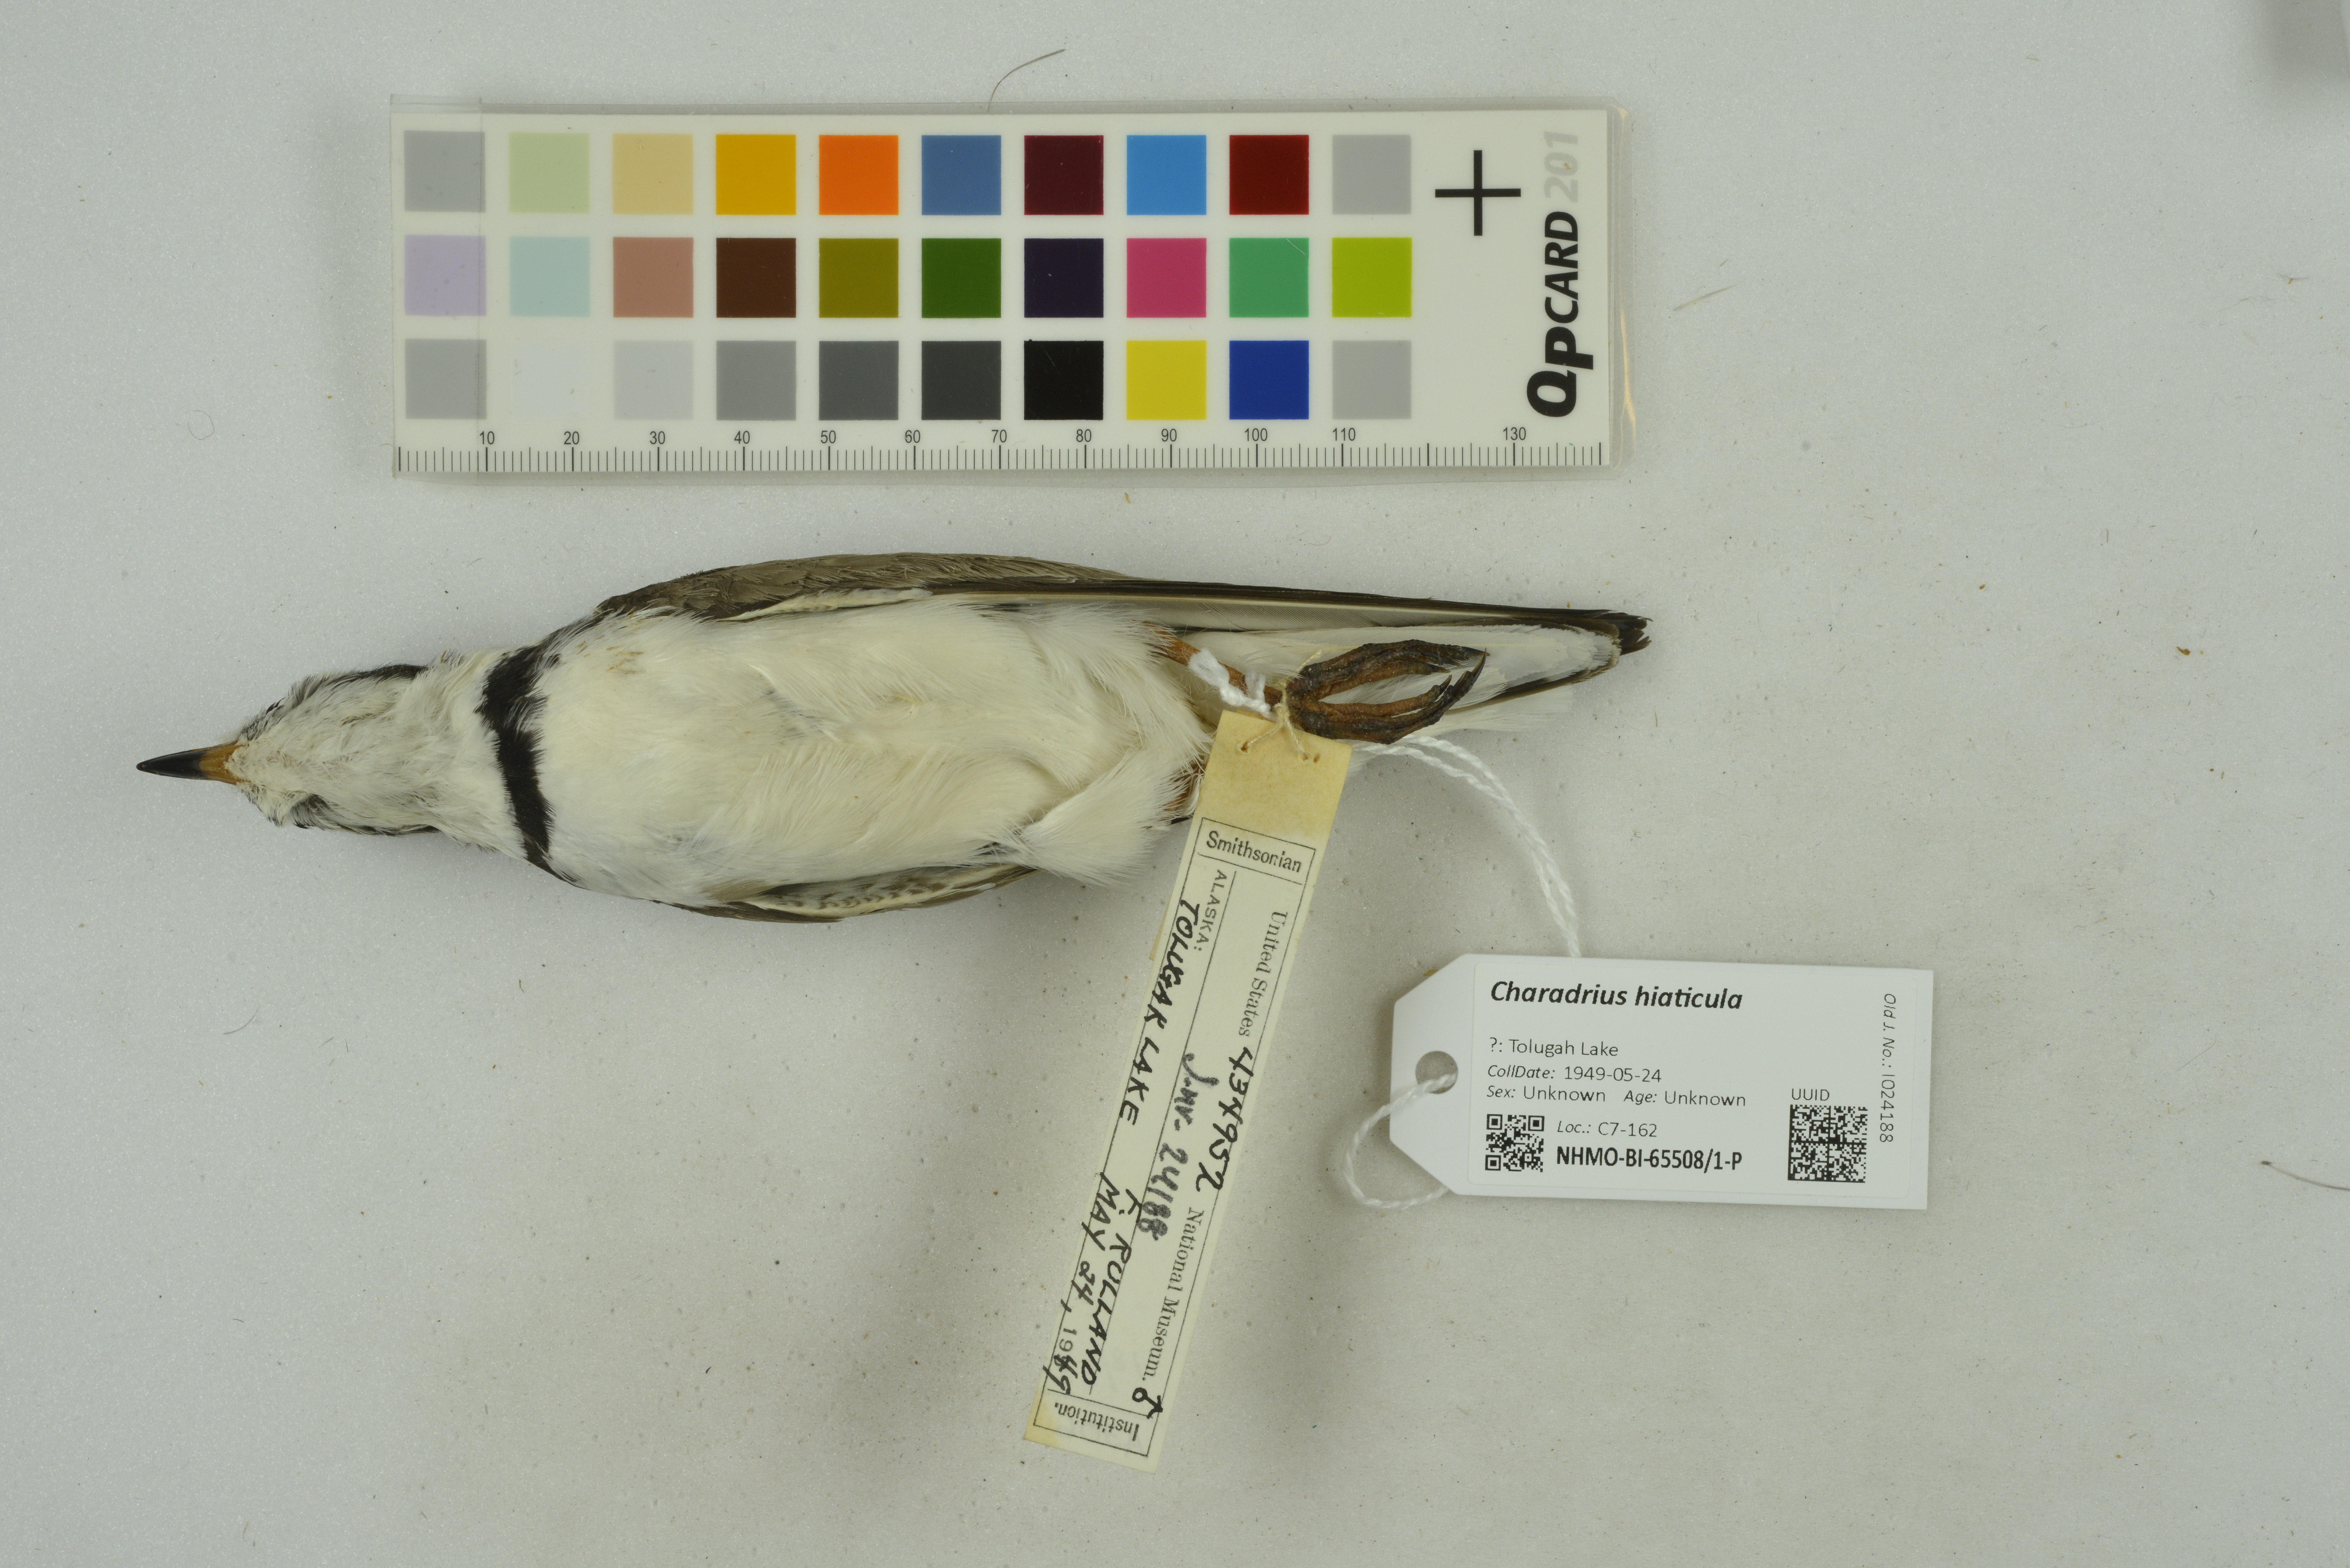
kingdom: Animalia
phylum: Chordata
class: Aves
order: Charadriiformes
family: Charadriidae
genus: Charadrius
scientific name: Charadrius hiaticula
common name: Common ringed plover
